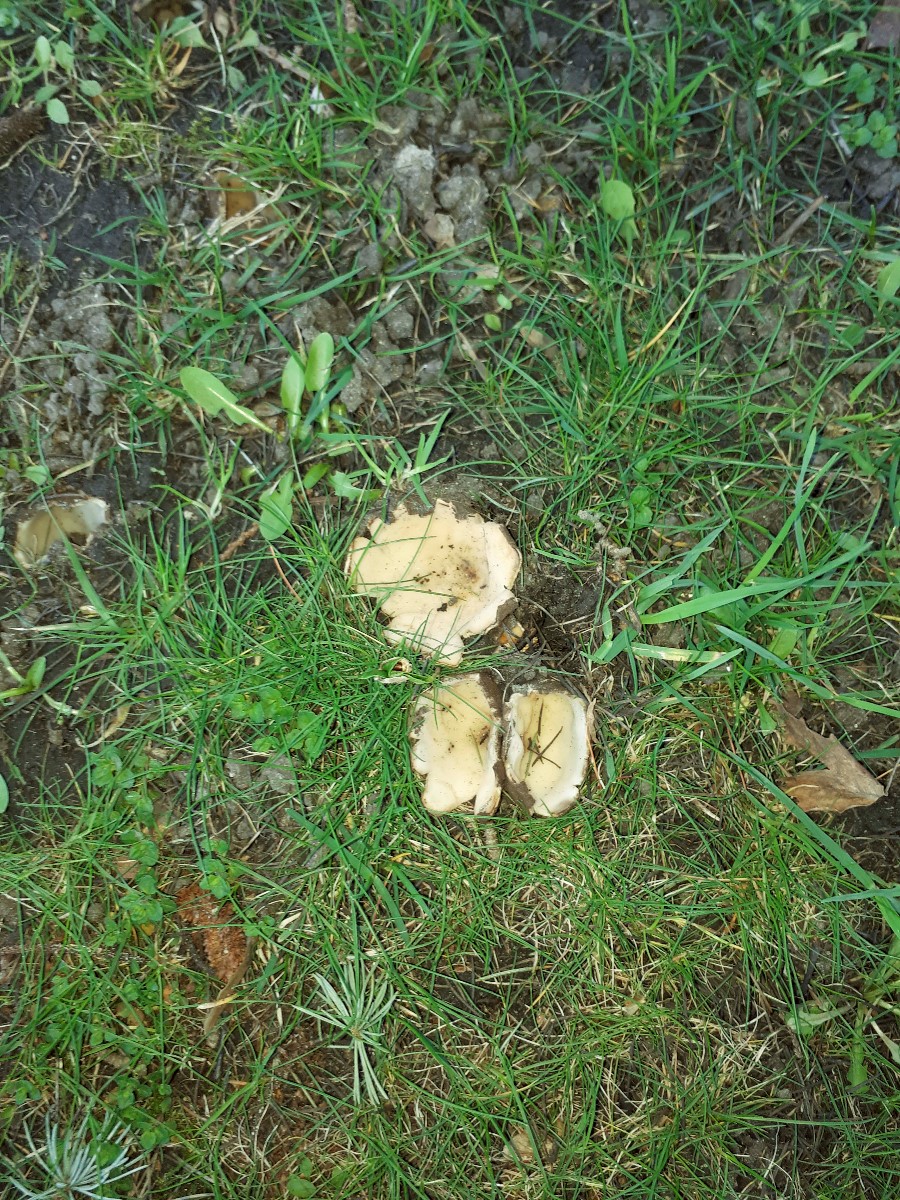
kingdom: Fungi
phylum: Ascomycota
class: Pezizomycetes
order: Pezizales
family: Pyronemataceae
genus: Geopora
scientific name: Geopora sumneriana
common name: vår-jordbæger
